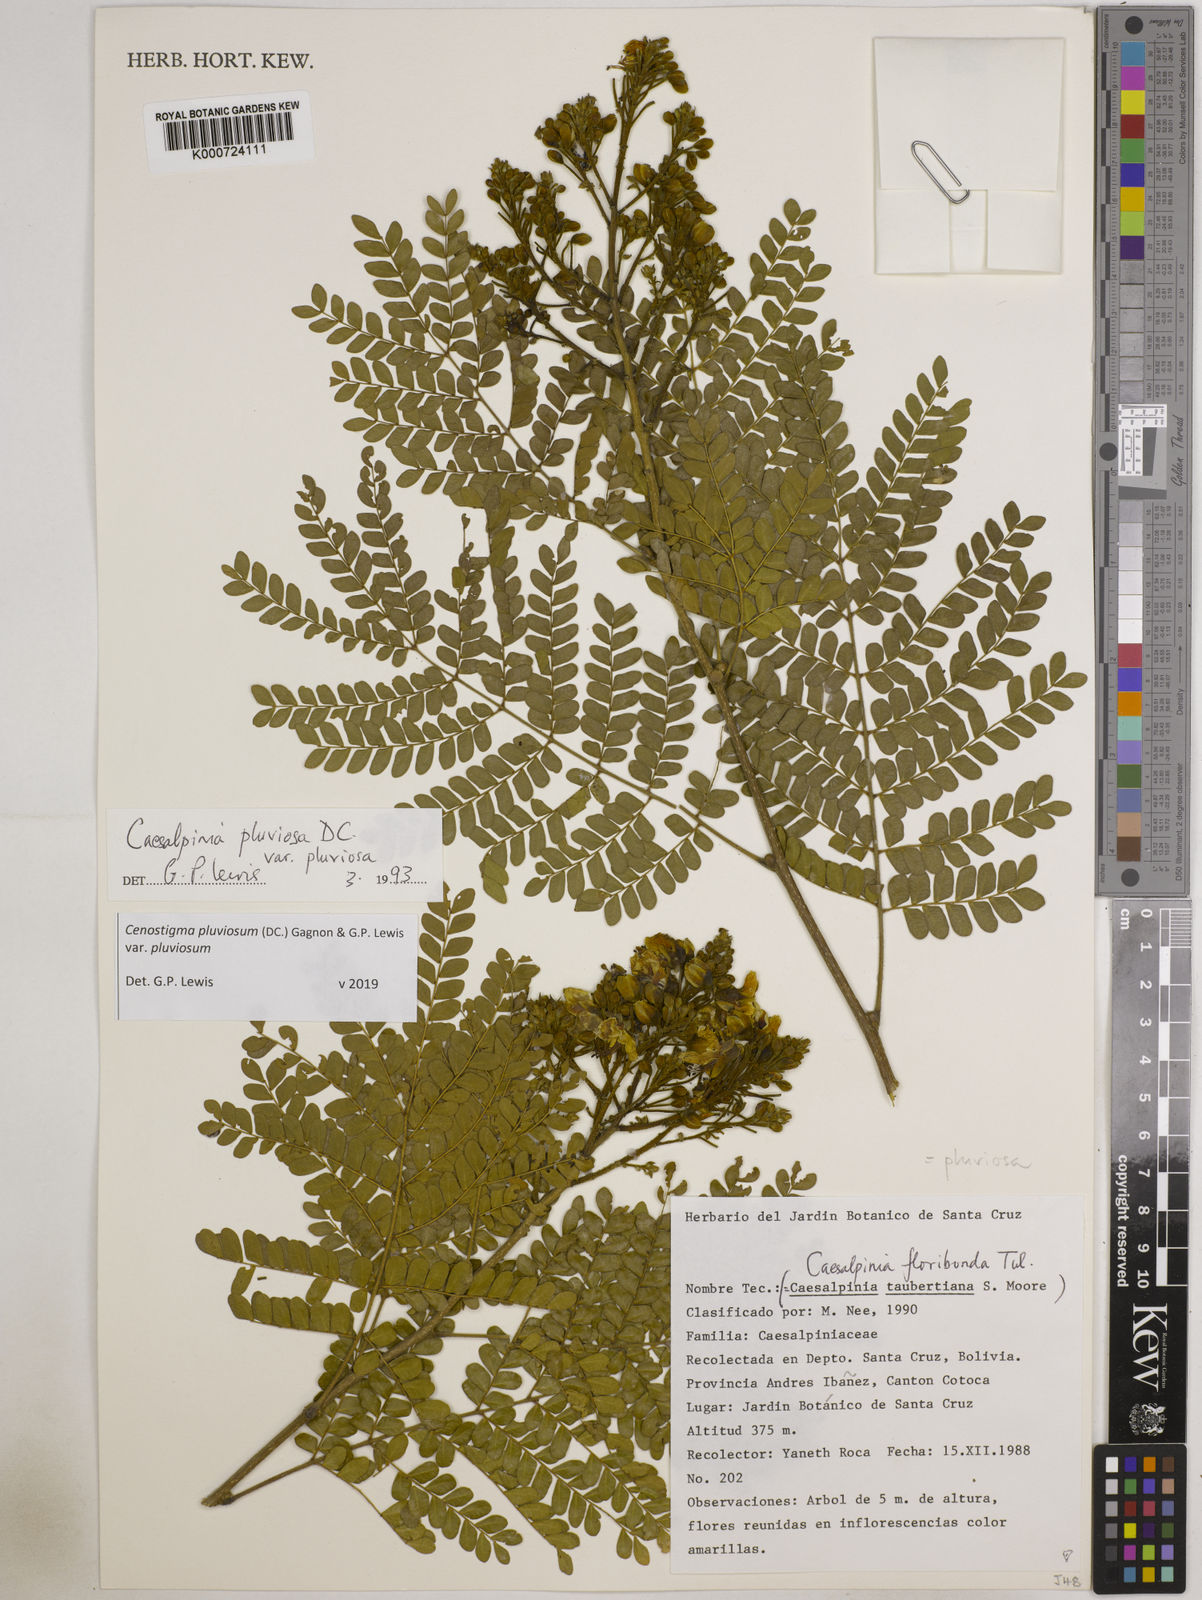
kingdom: Plantae
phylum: Tracheophyta
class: Magnoliopsida
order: Fabales
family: Fabaceae
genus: Cenostigma
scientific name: Cenostigma pluviosum
